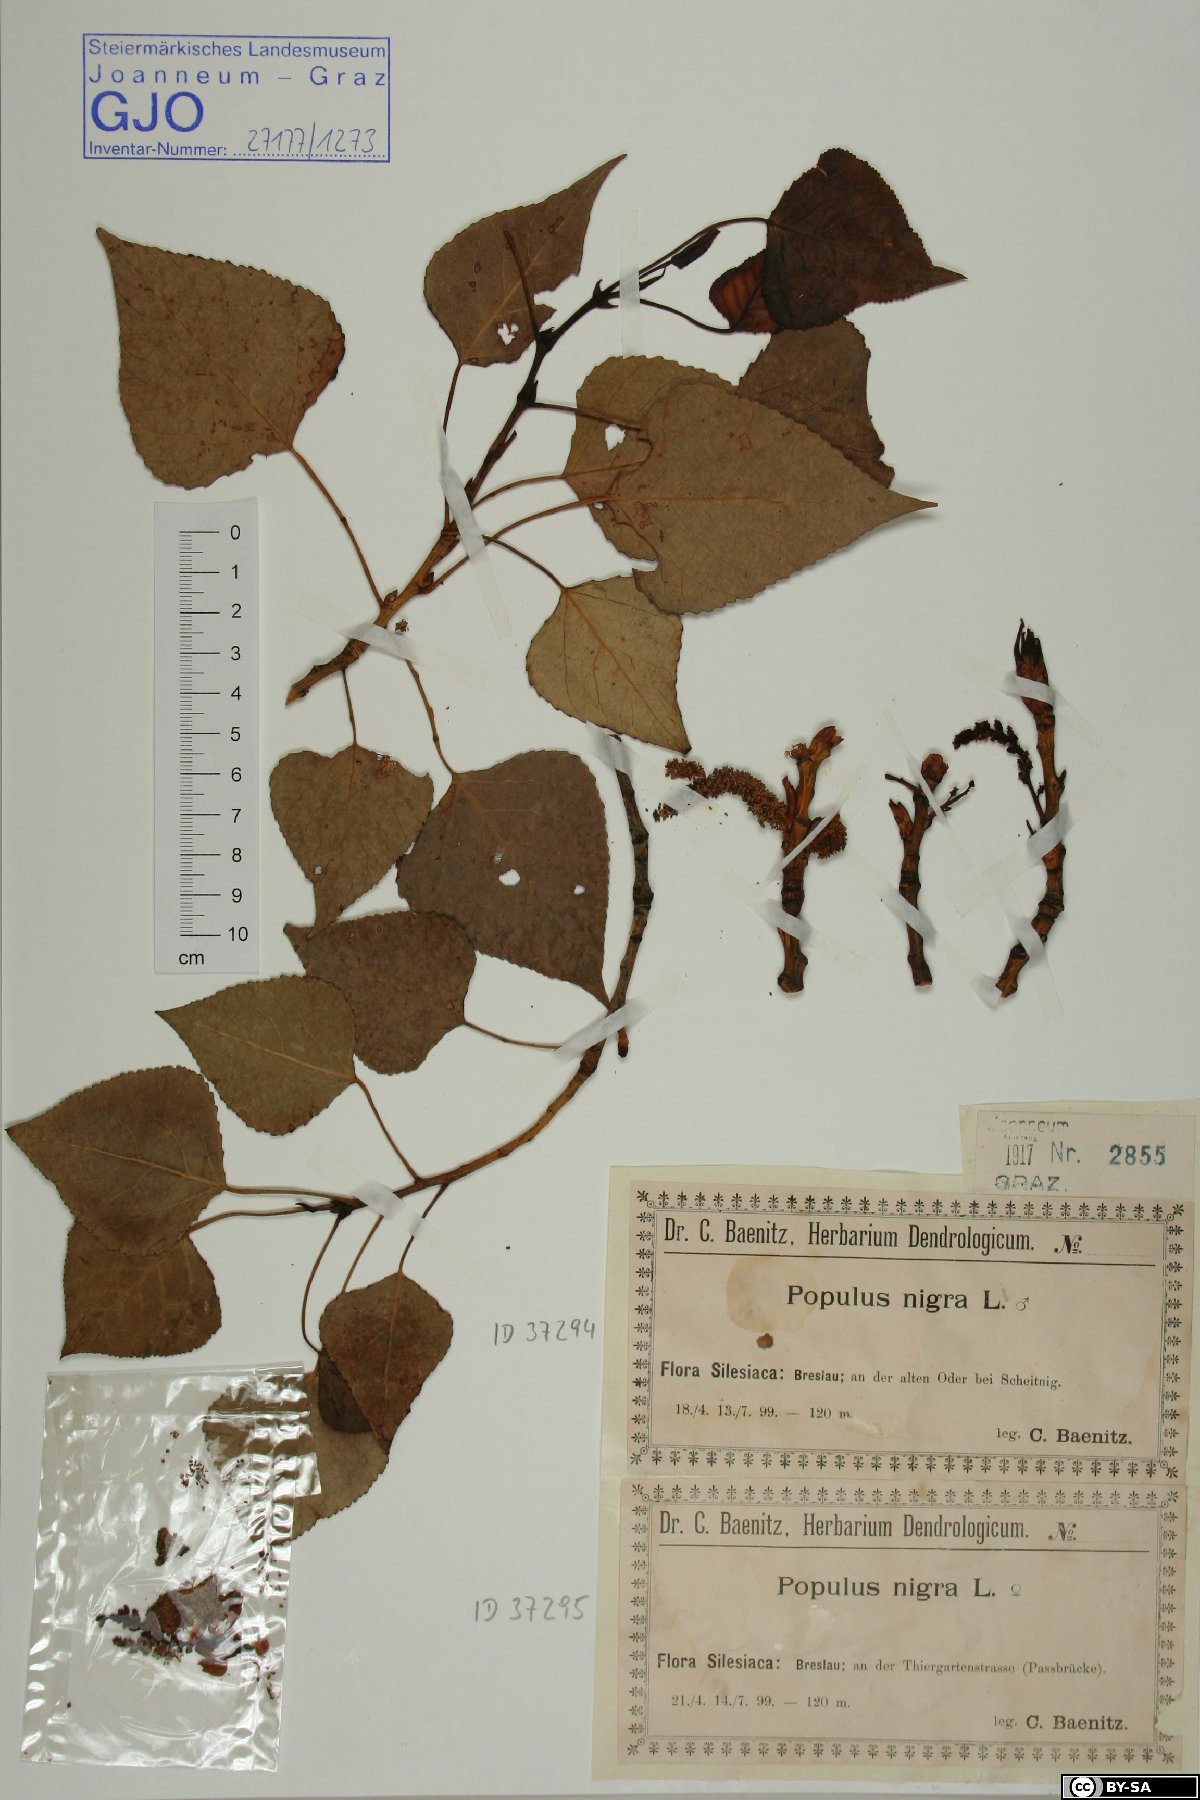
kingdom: Plantae
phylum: Tracheophyta
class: Magnoliopsida
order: Malpighiales
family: Salicaceae
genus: Populus
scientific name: Populus nigra
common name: Black poplar
